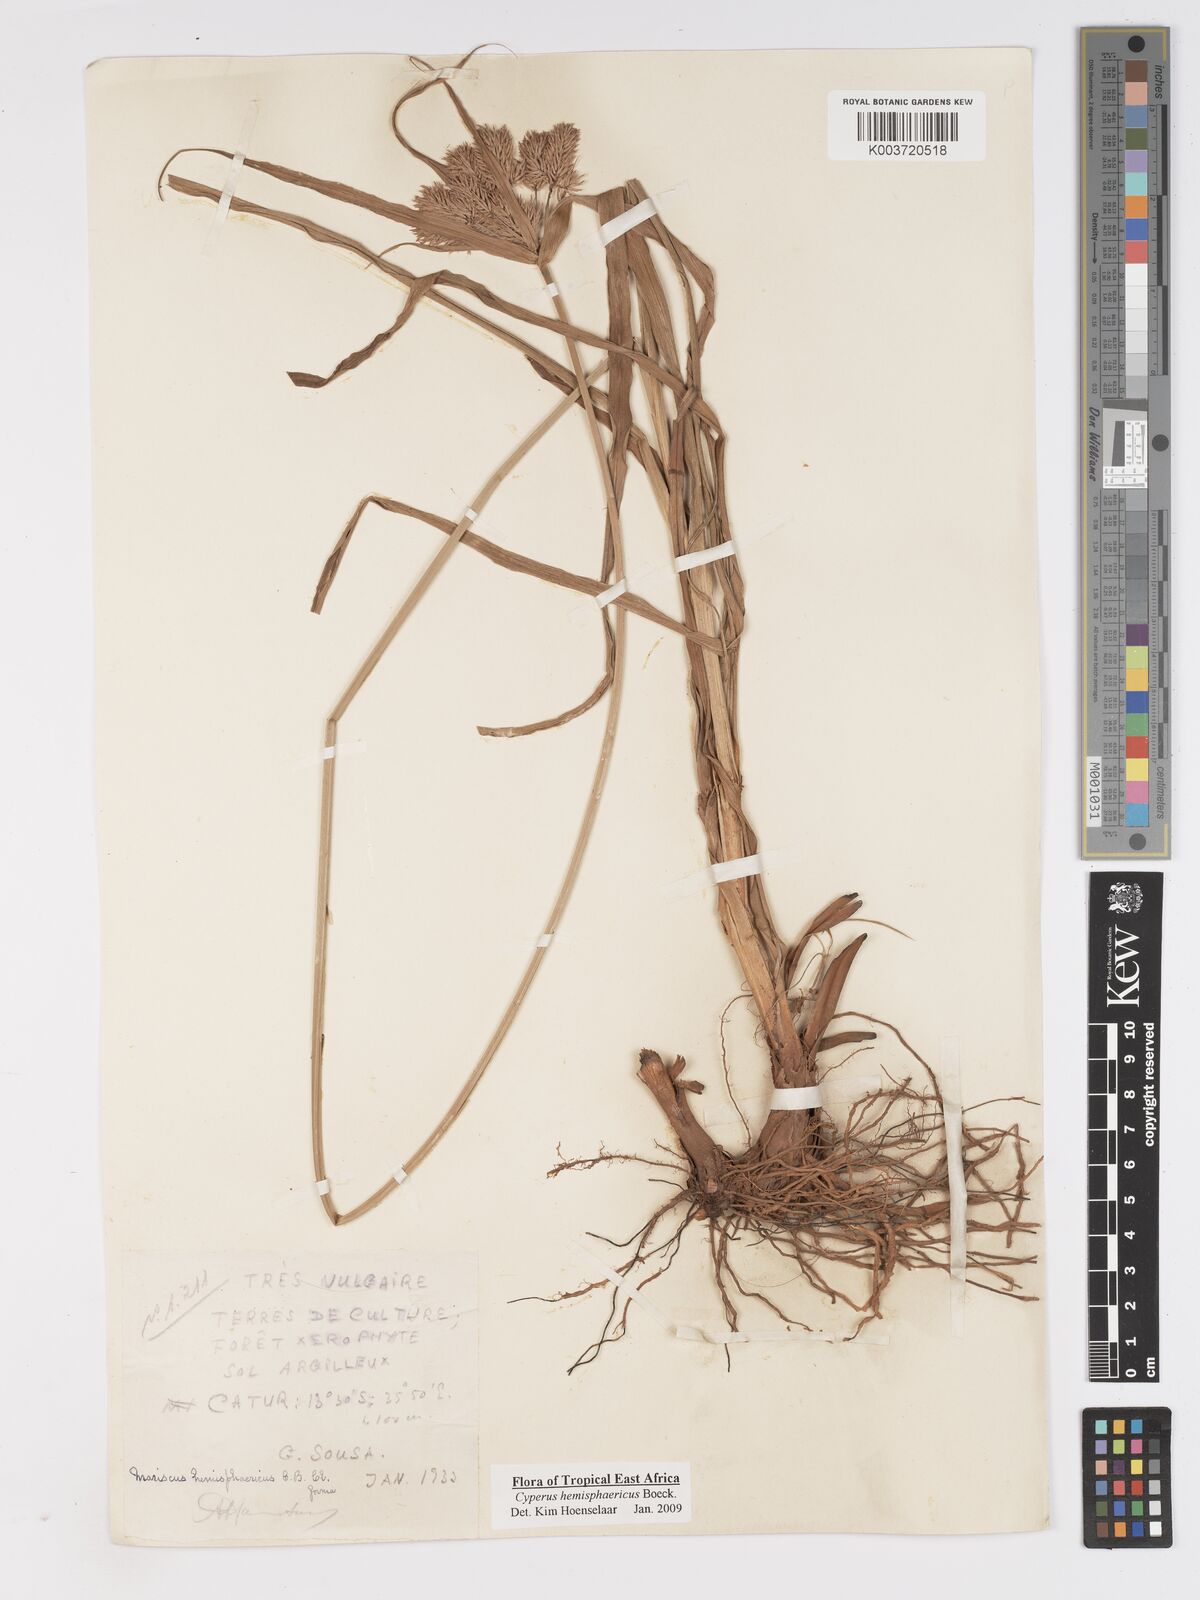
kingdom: Plantae
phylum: Tracheophyta
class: Liliopsida
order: Poales
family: Cyperaceae
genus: Cyperus
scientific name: Cyperus hemisphaericus
